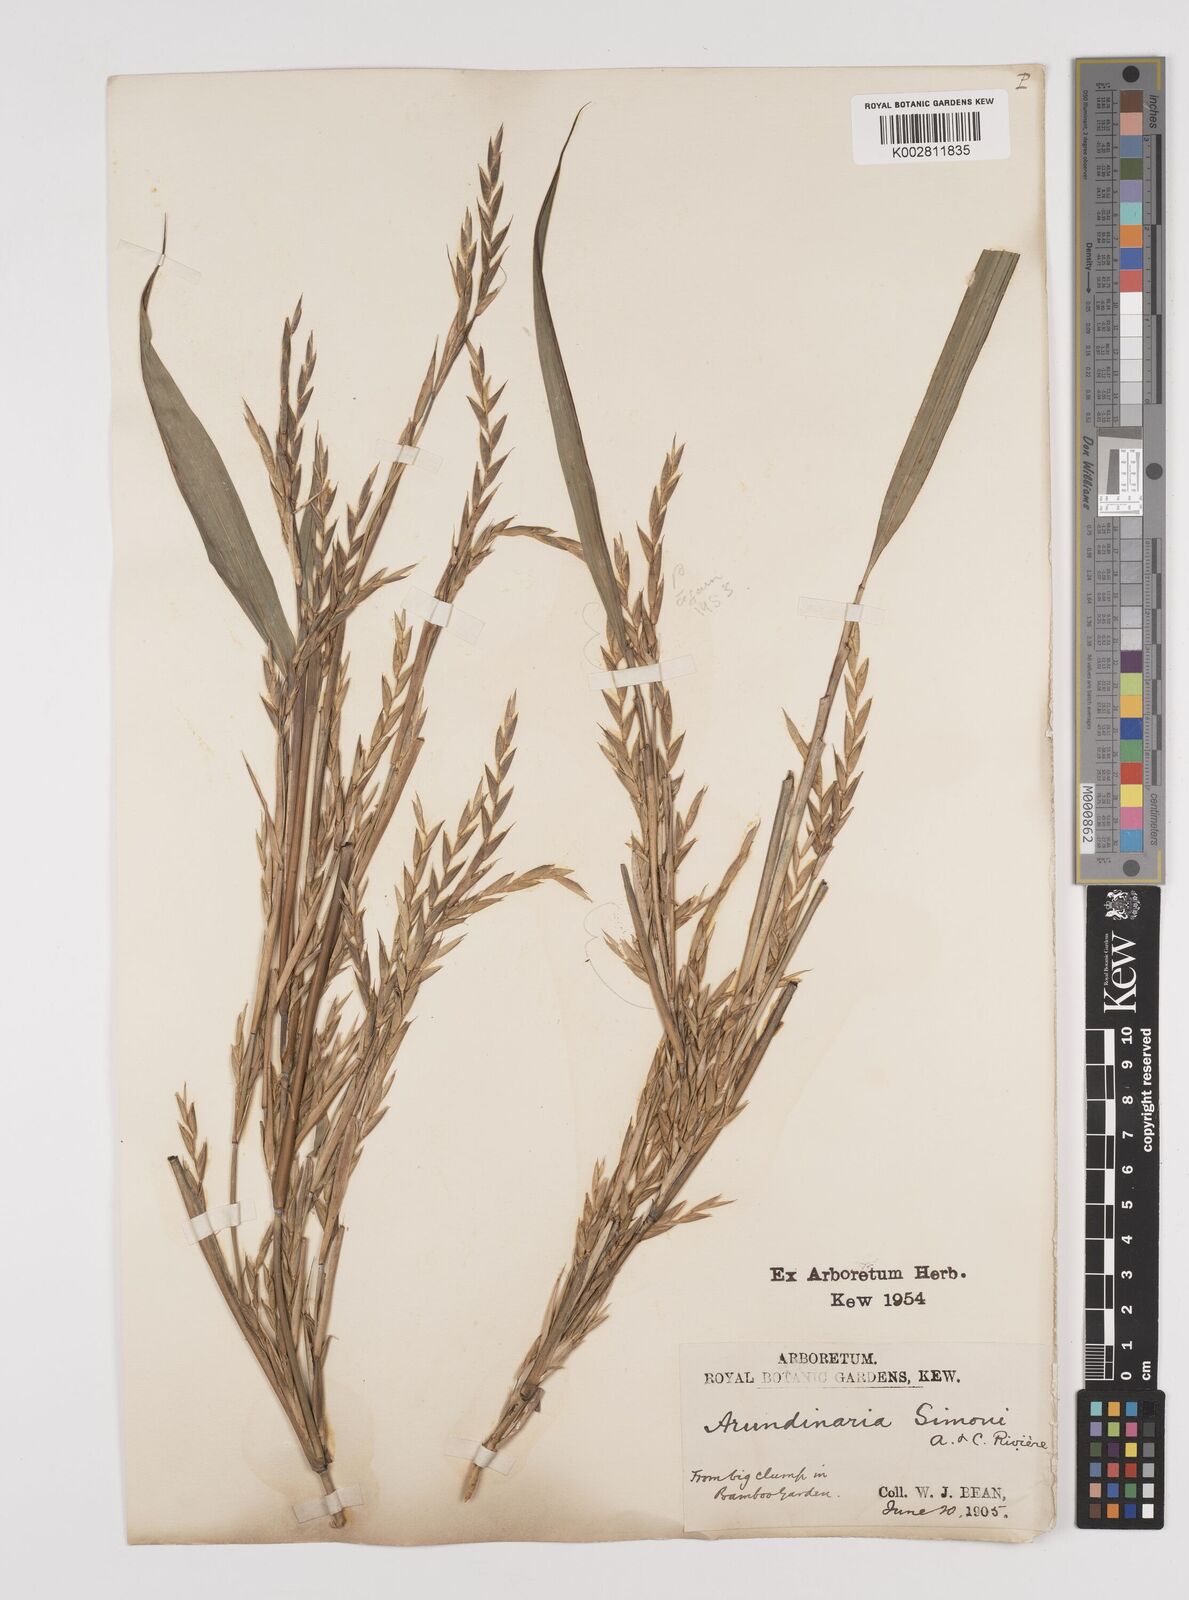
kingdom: Plantae
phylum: Tracheophyta
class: Liliopsida
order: Poales
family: Poaceae
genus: Pleioblastus
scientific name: Pleioblastus simonii
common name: Simon bamboo
